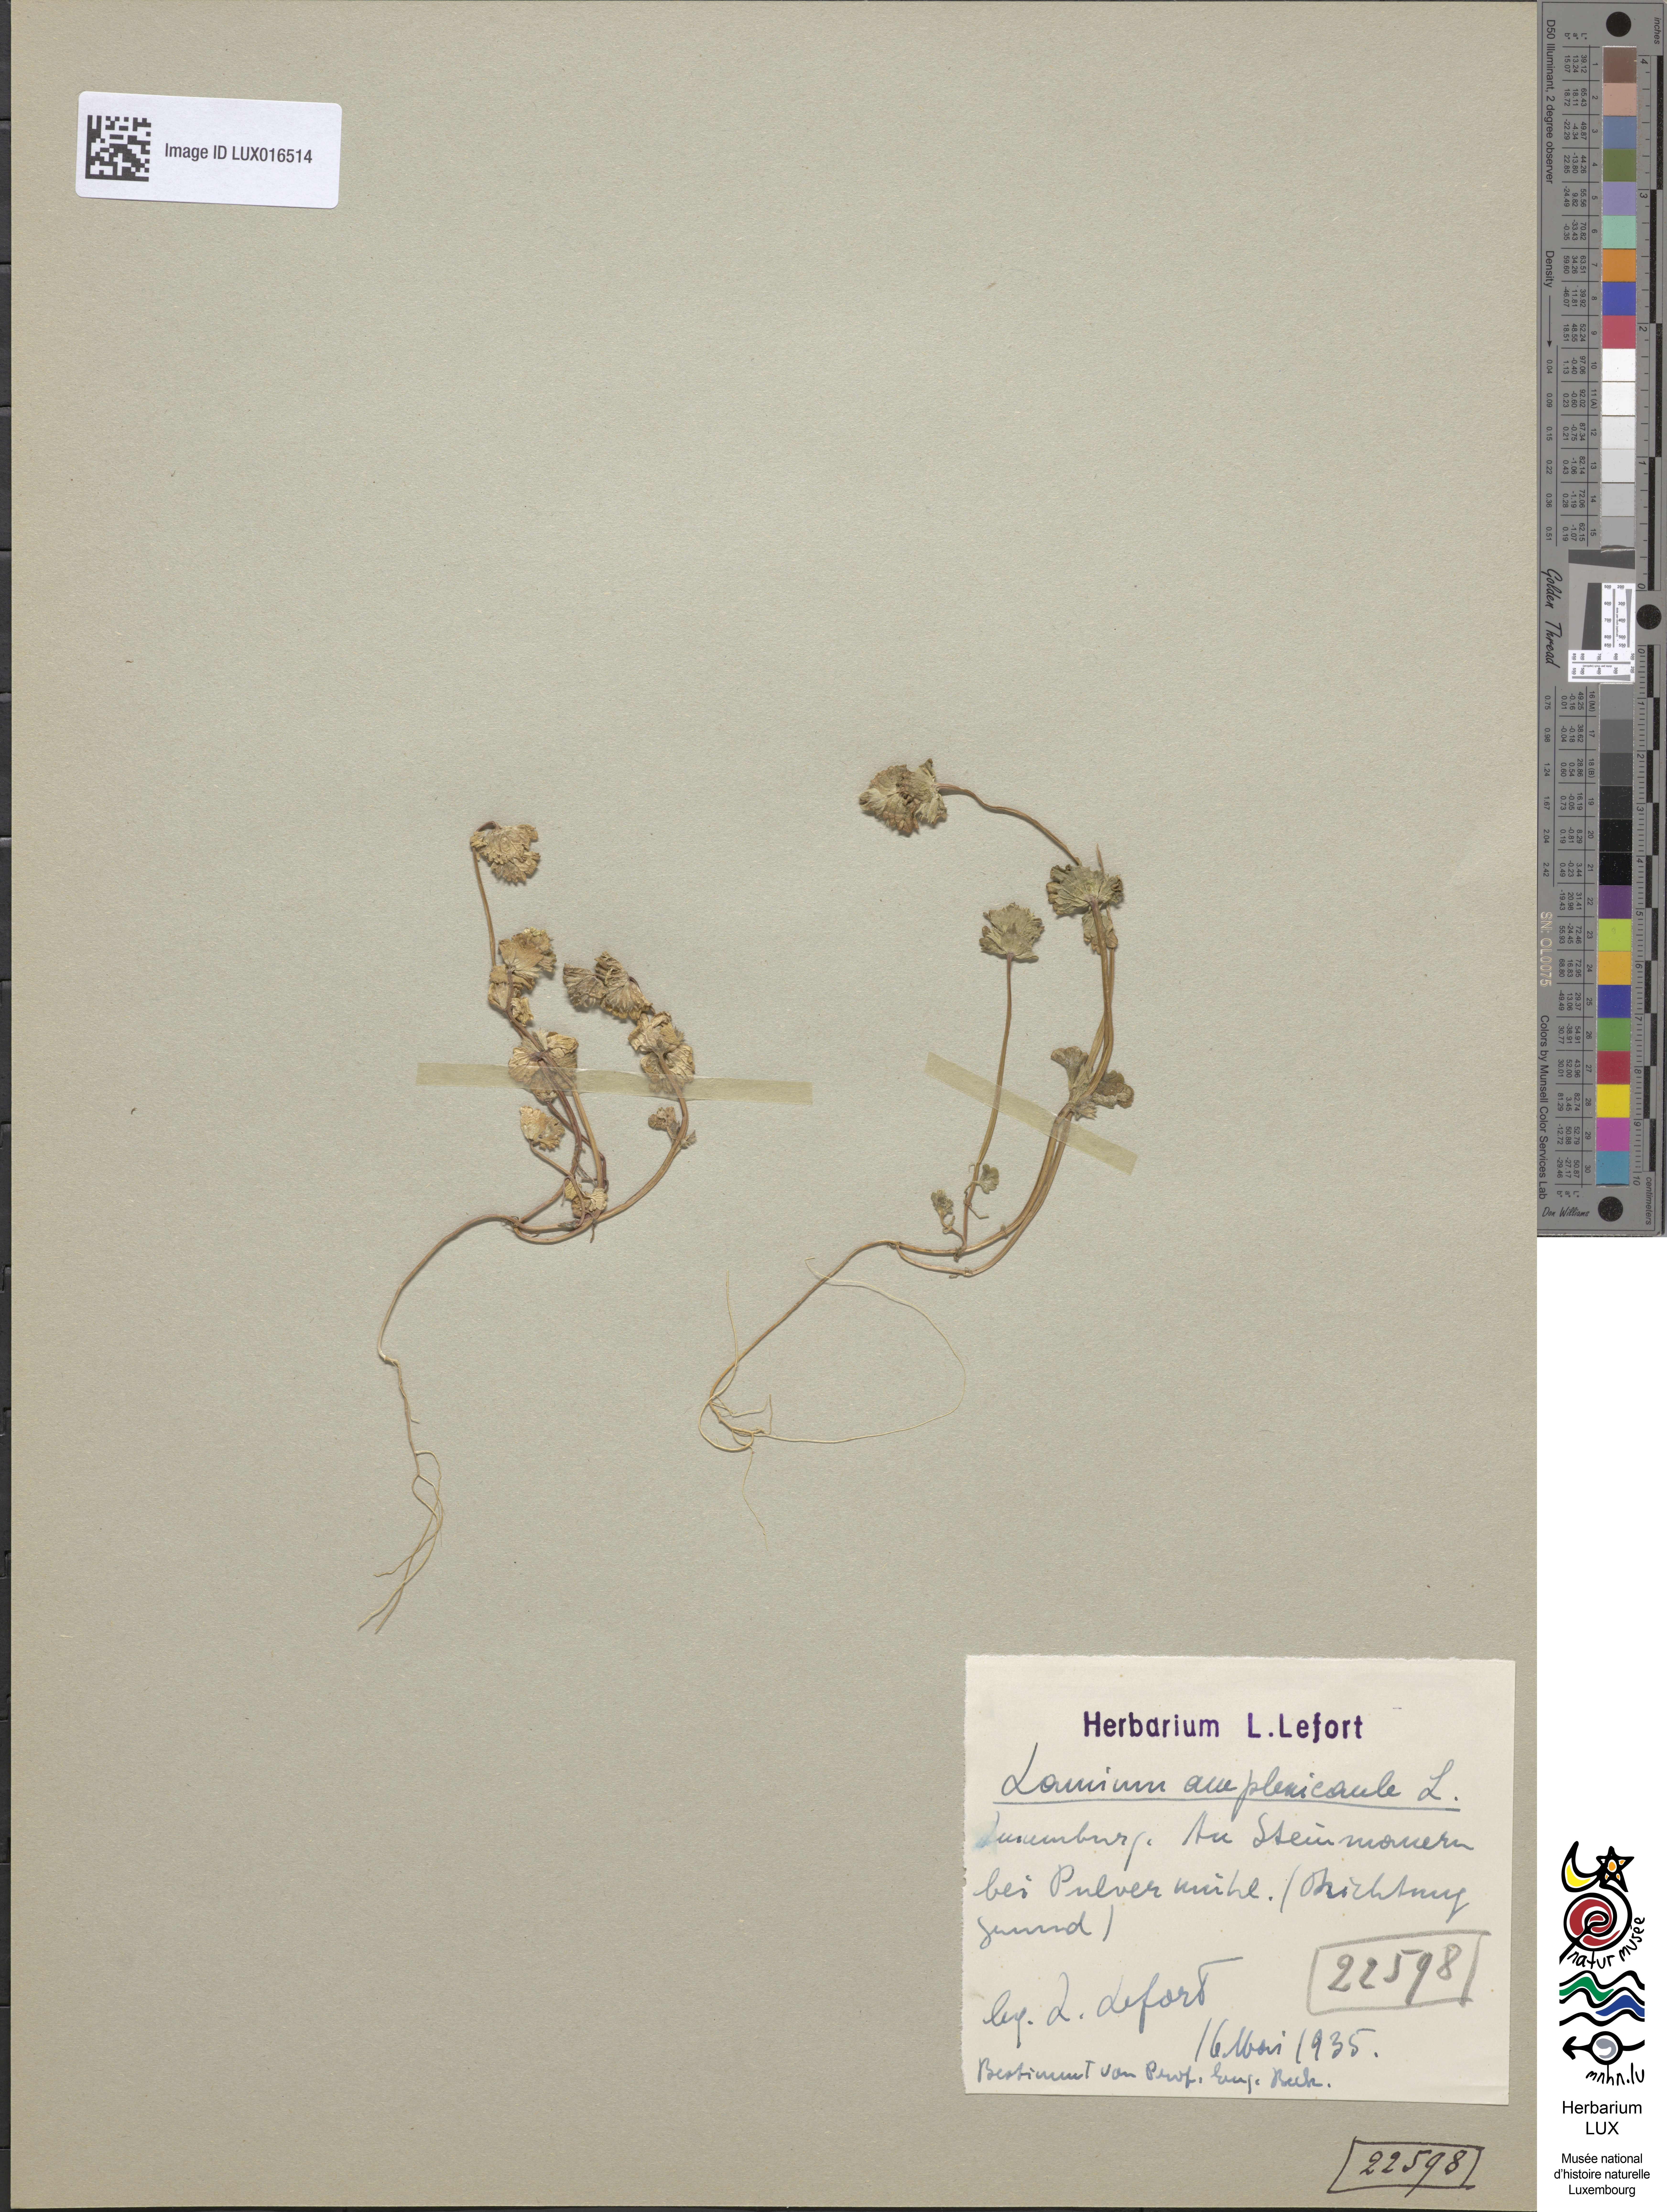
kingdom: Plantae
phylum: Tracheophyta
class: Magnoliopsida
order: Lamiales
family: Lamiaceae
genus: Lamium
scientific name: Lamium amplexicaule
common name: Henbit dead-nettle
